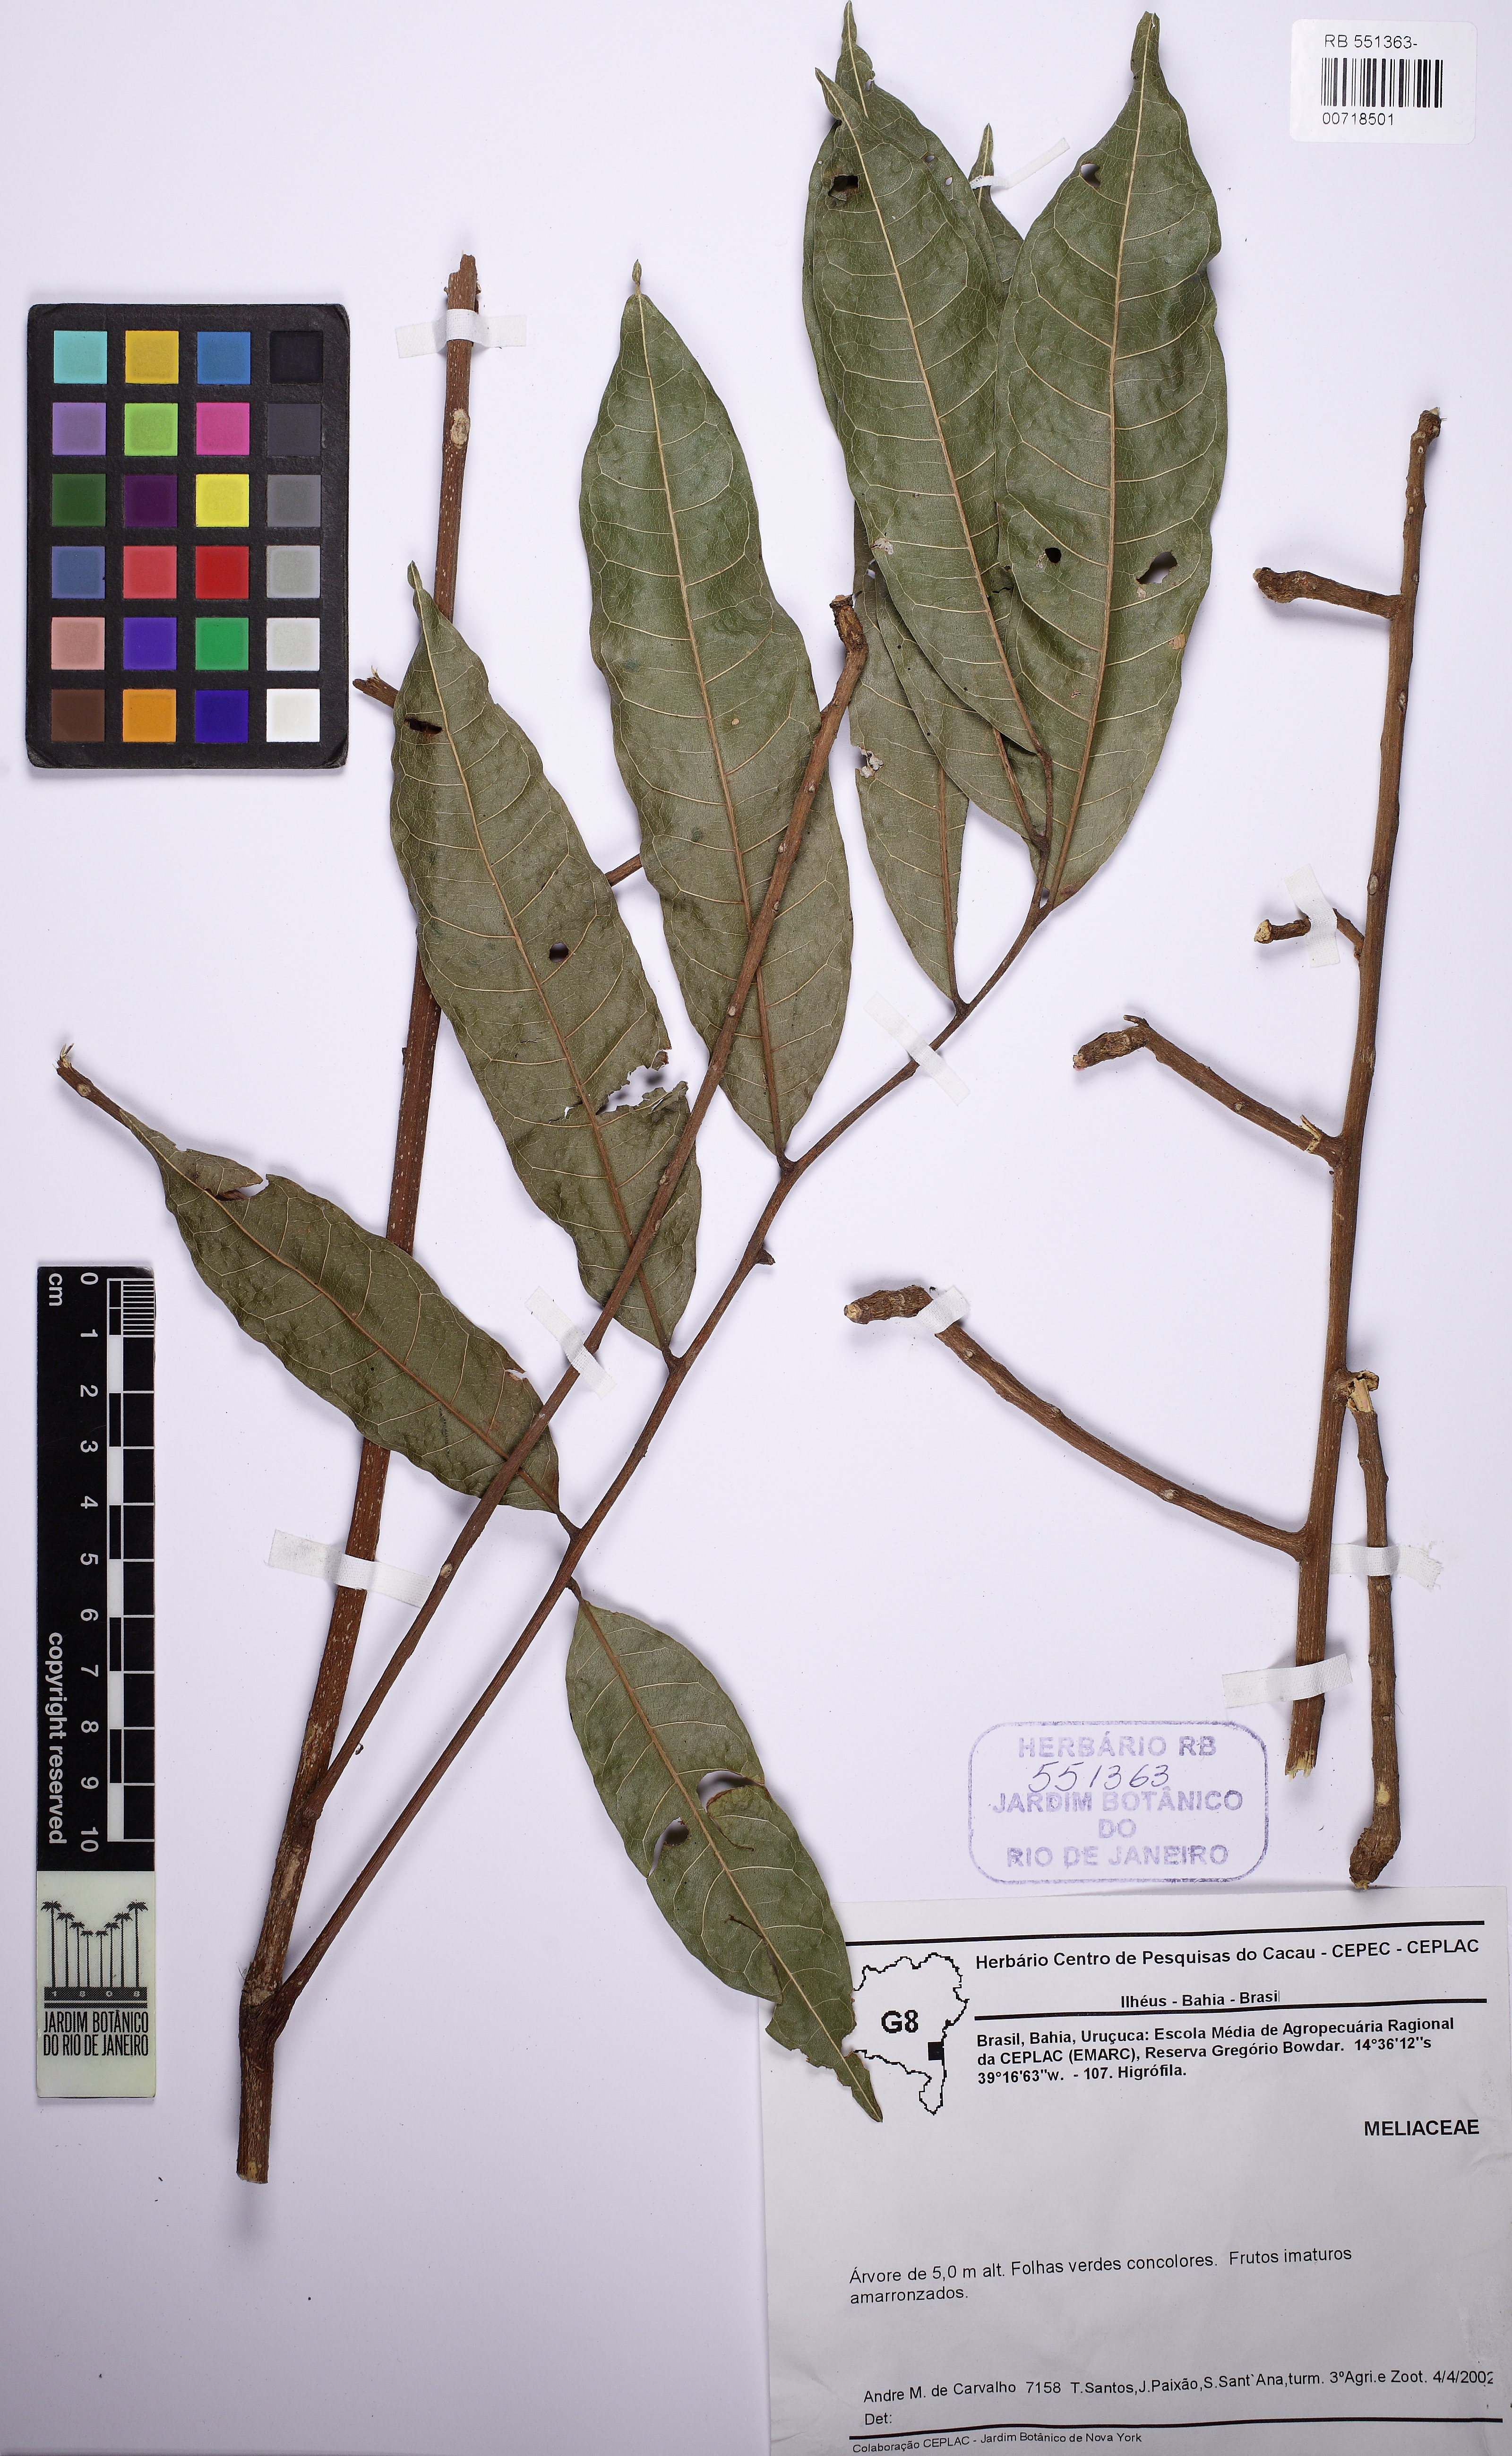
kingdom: Plantae
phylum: Tracheophyta
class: Magnoliopsida
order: Sapindales
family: Sapindaceae
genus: Lepisanthes
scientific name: Lepisanthes
